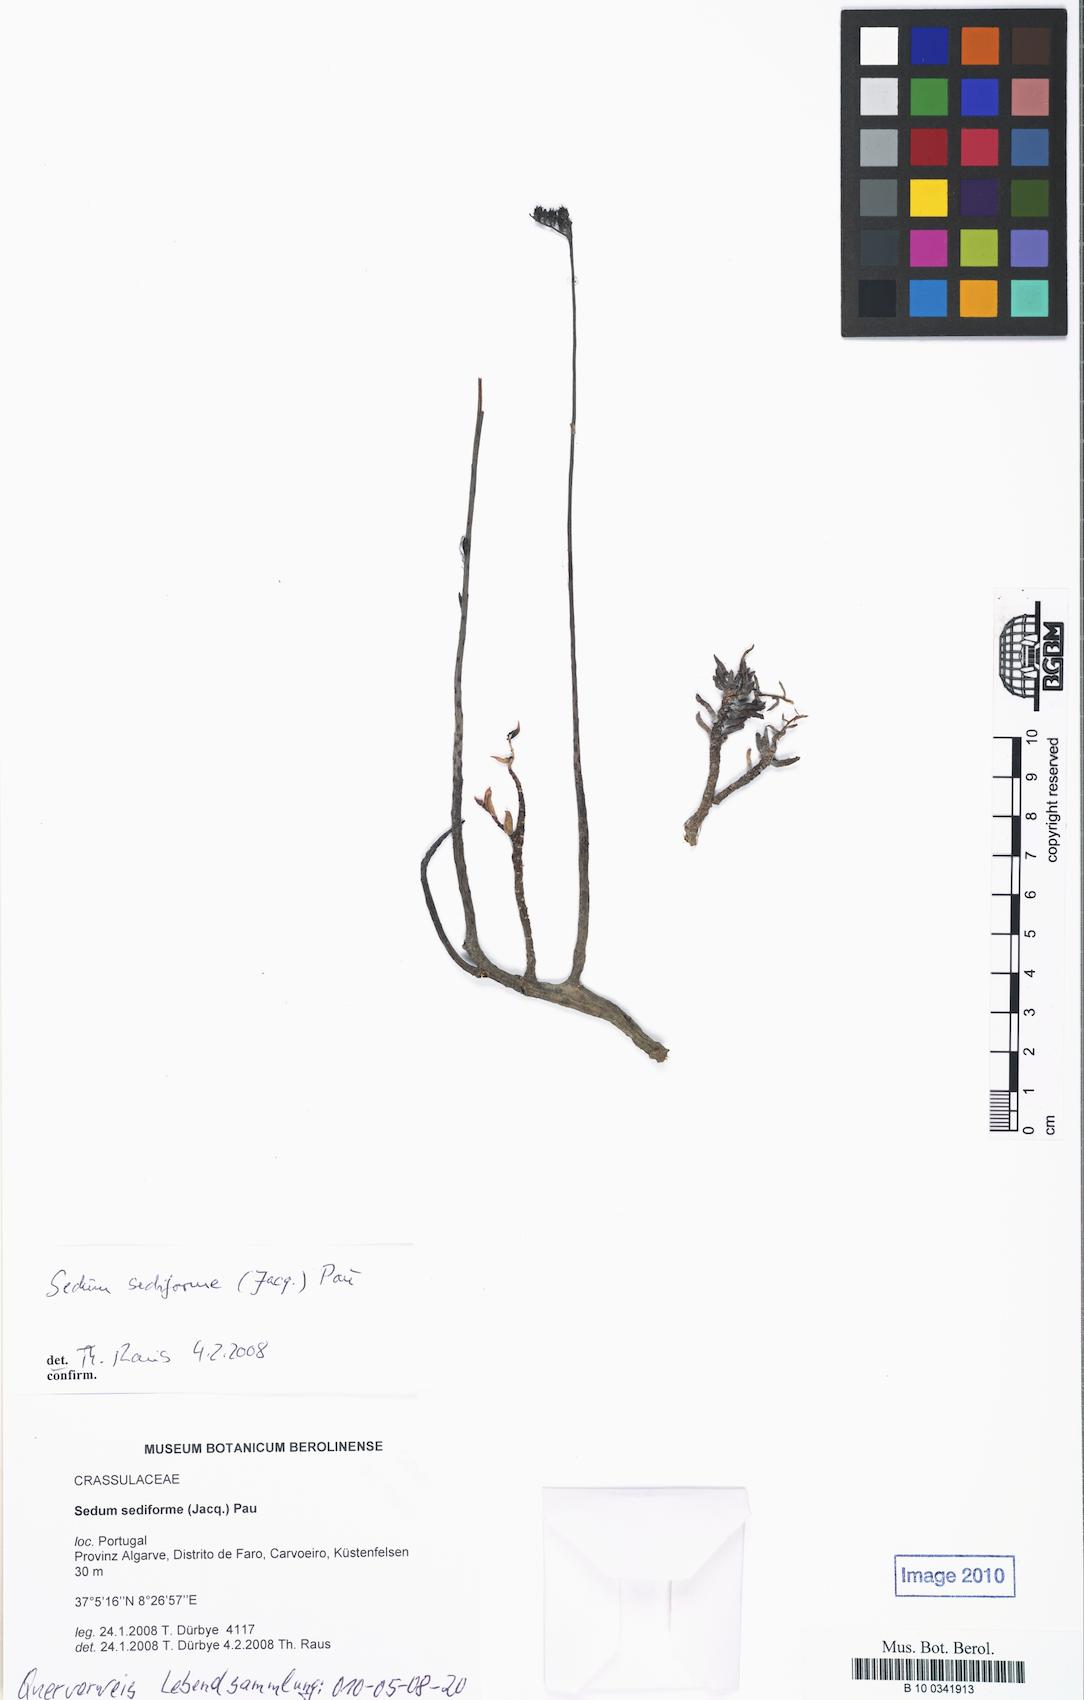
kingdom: Plantae
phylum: Tracheophyta
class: Magnoliopsida
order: Saxifragales
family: Crassulaceae
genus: Petrosedum
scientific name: Petrosedum sediforme
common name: Pale stonecrop
